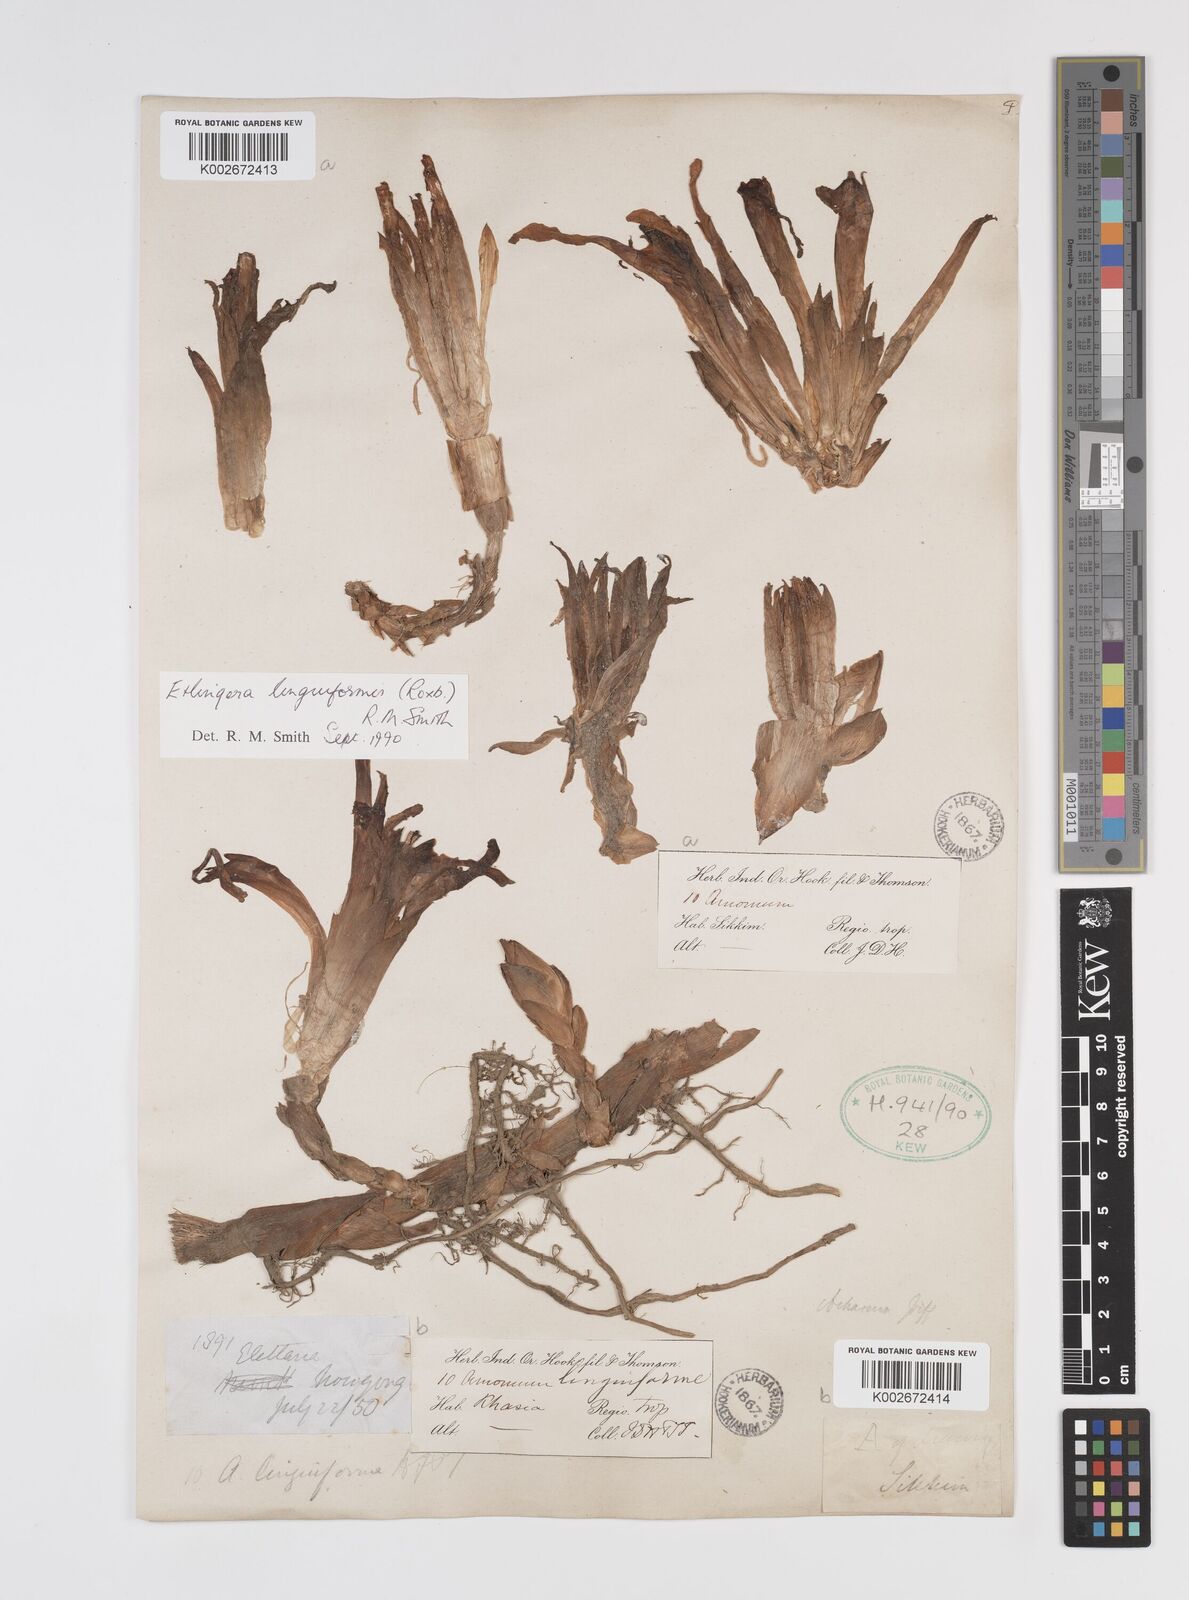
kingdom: Plantae
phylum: Tracheophyta
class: Liliopsida
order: Zingiberales
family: Zingiberaceae
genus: Etlingera
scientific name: Etlingera linguiformis
